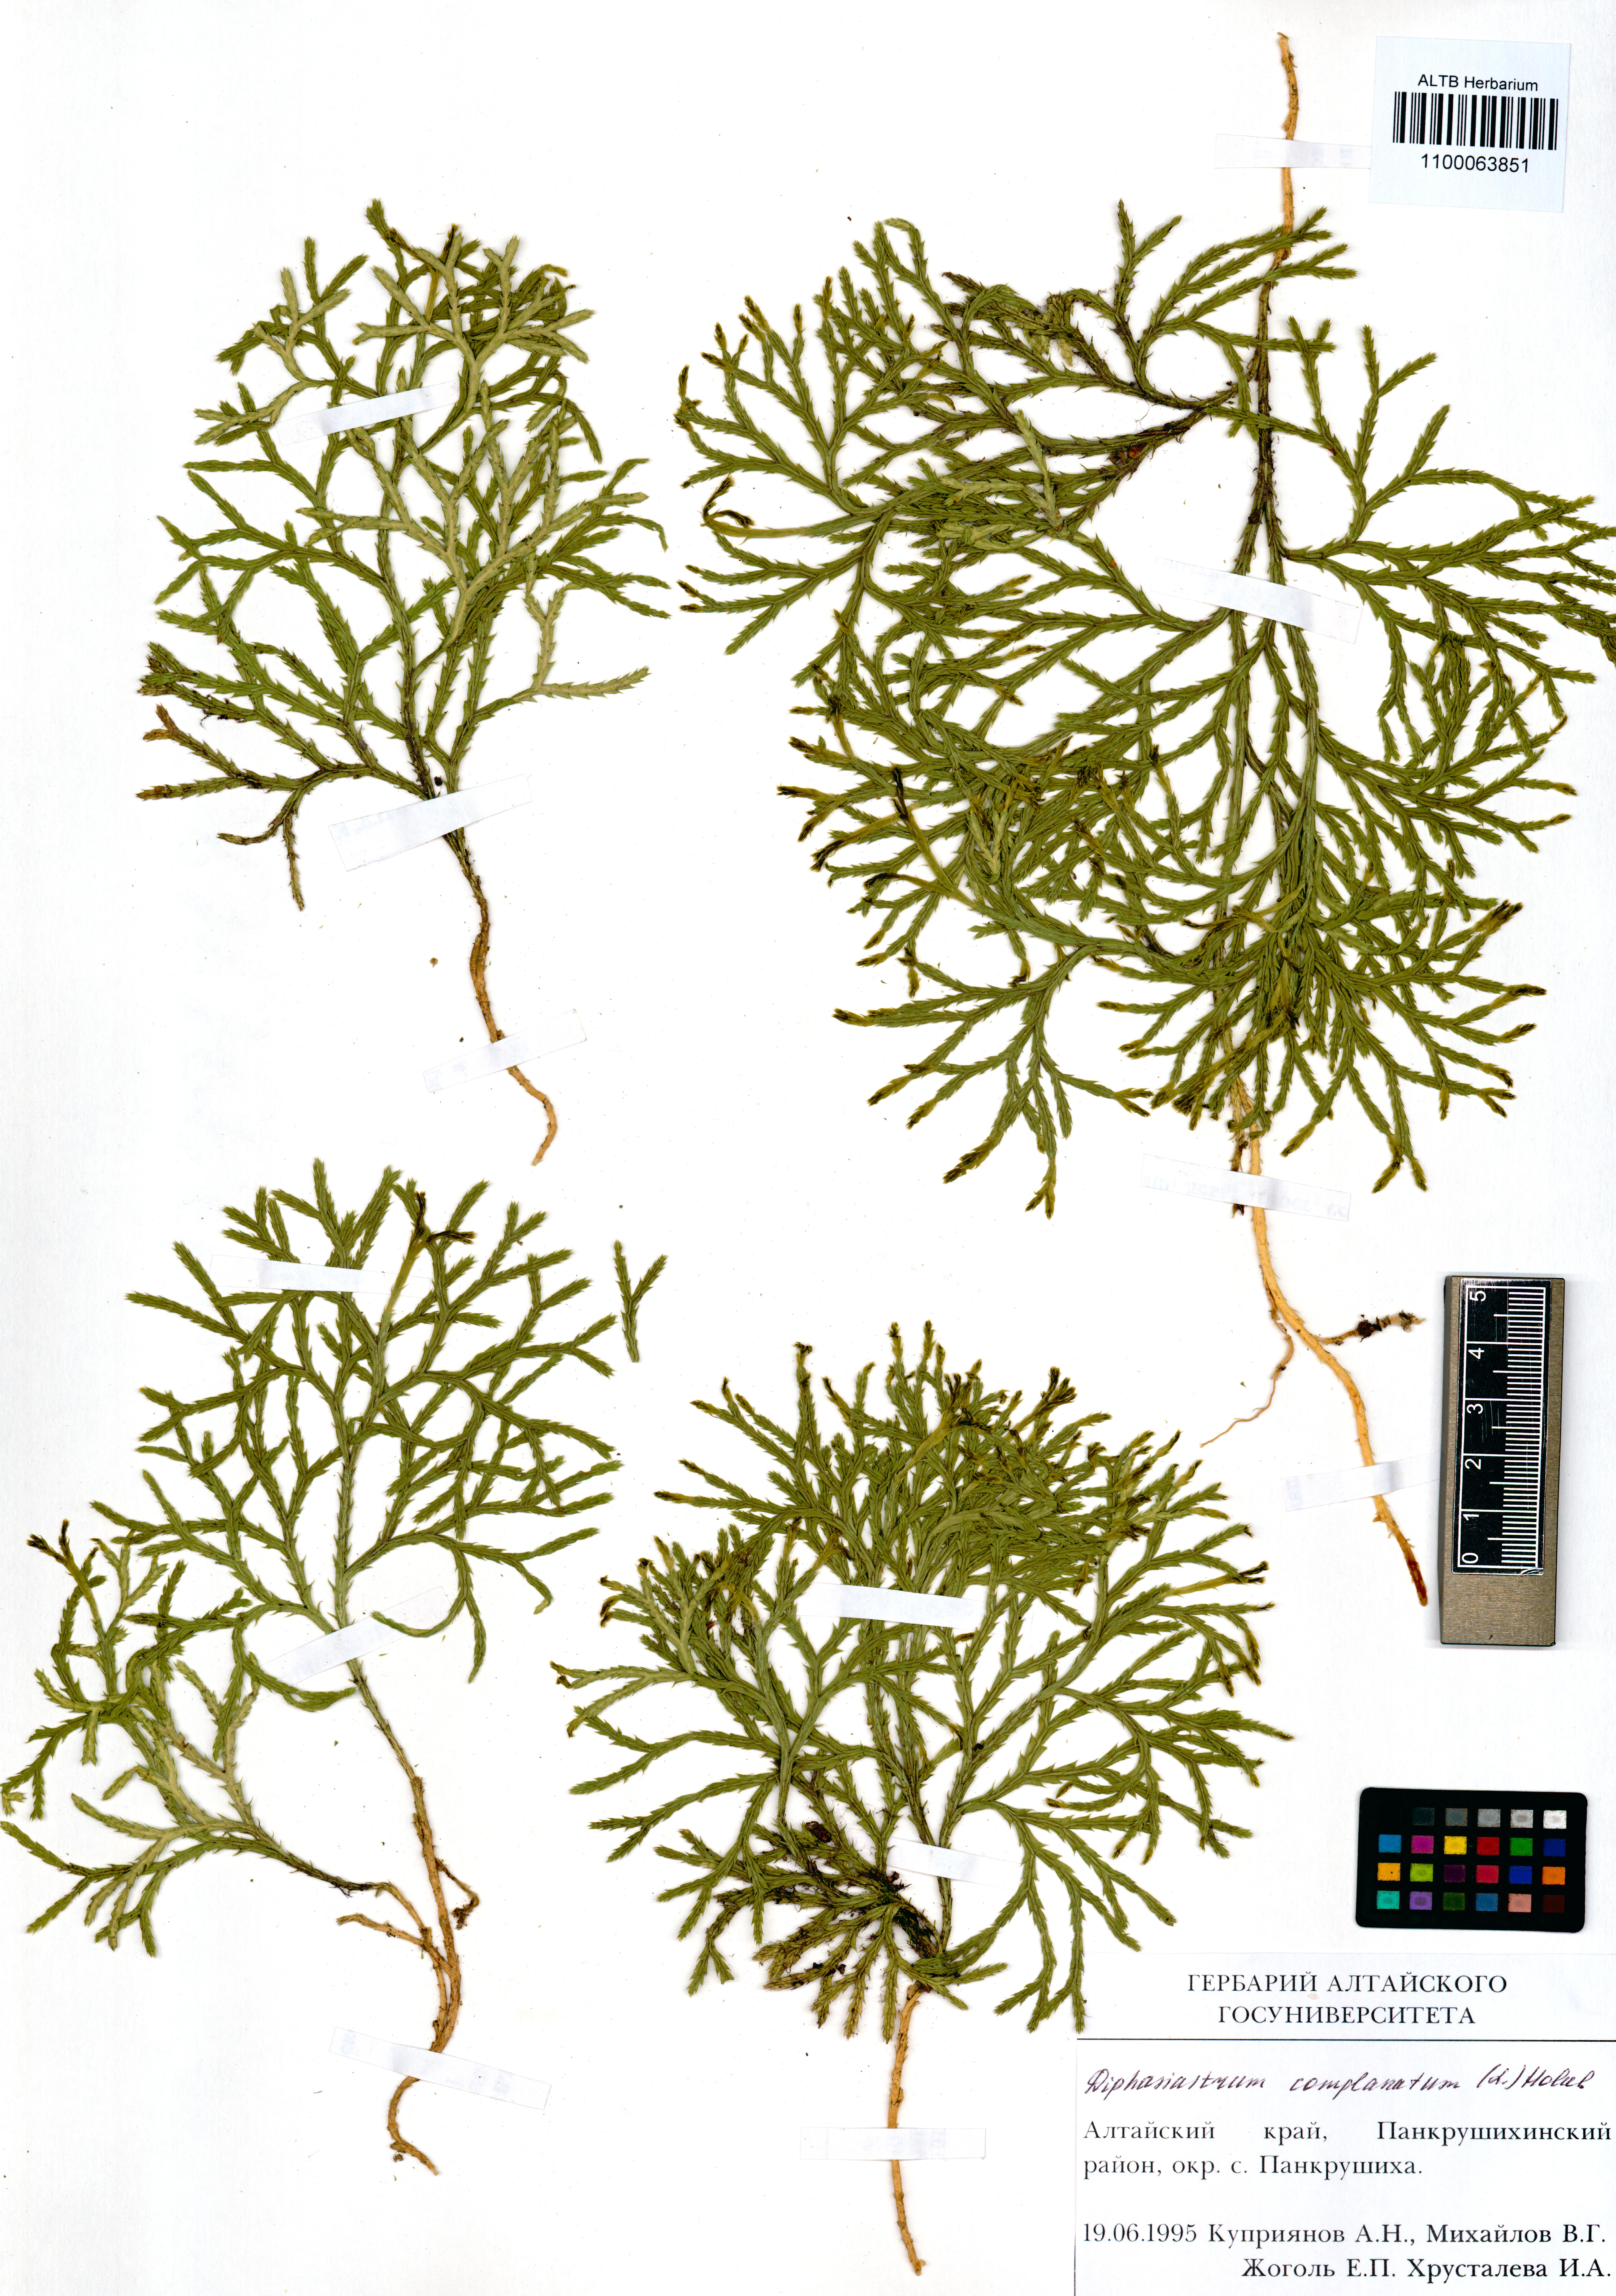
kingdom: Plantae
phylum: Tracheophyta
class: Lycopodiopsida
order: Lycopodiales
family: Lycopodiaceae
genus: Diphasiastrum
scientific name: Diphasiastrum complanatum
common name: Northern running-pine
